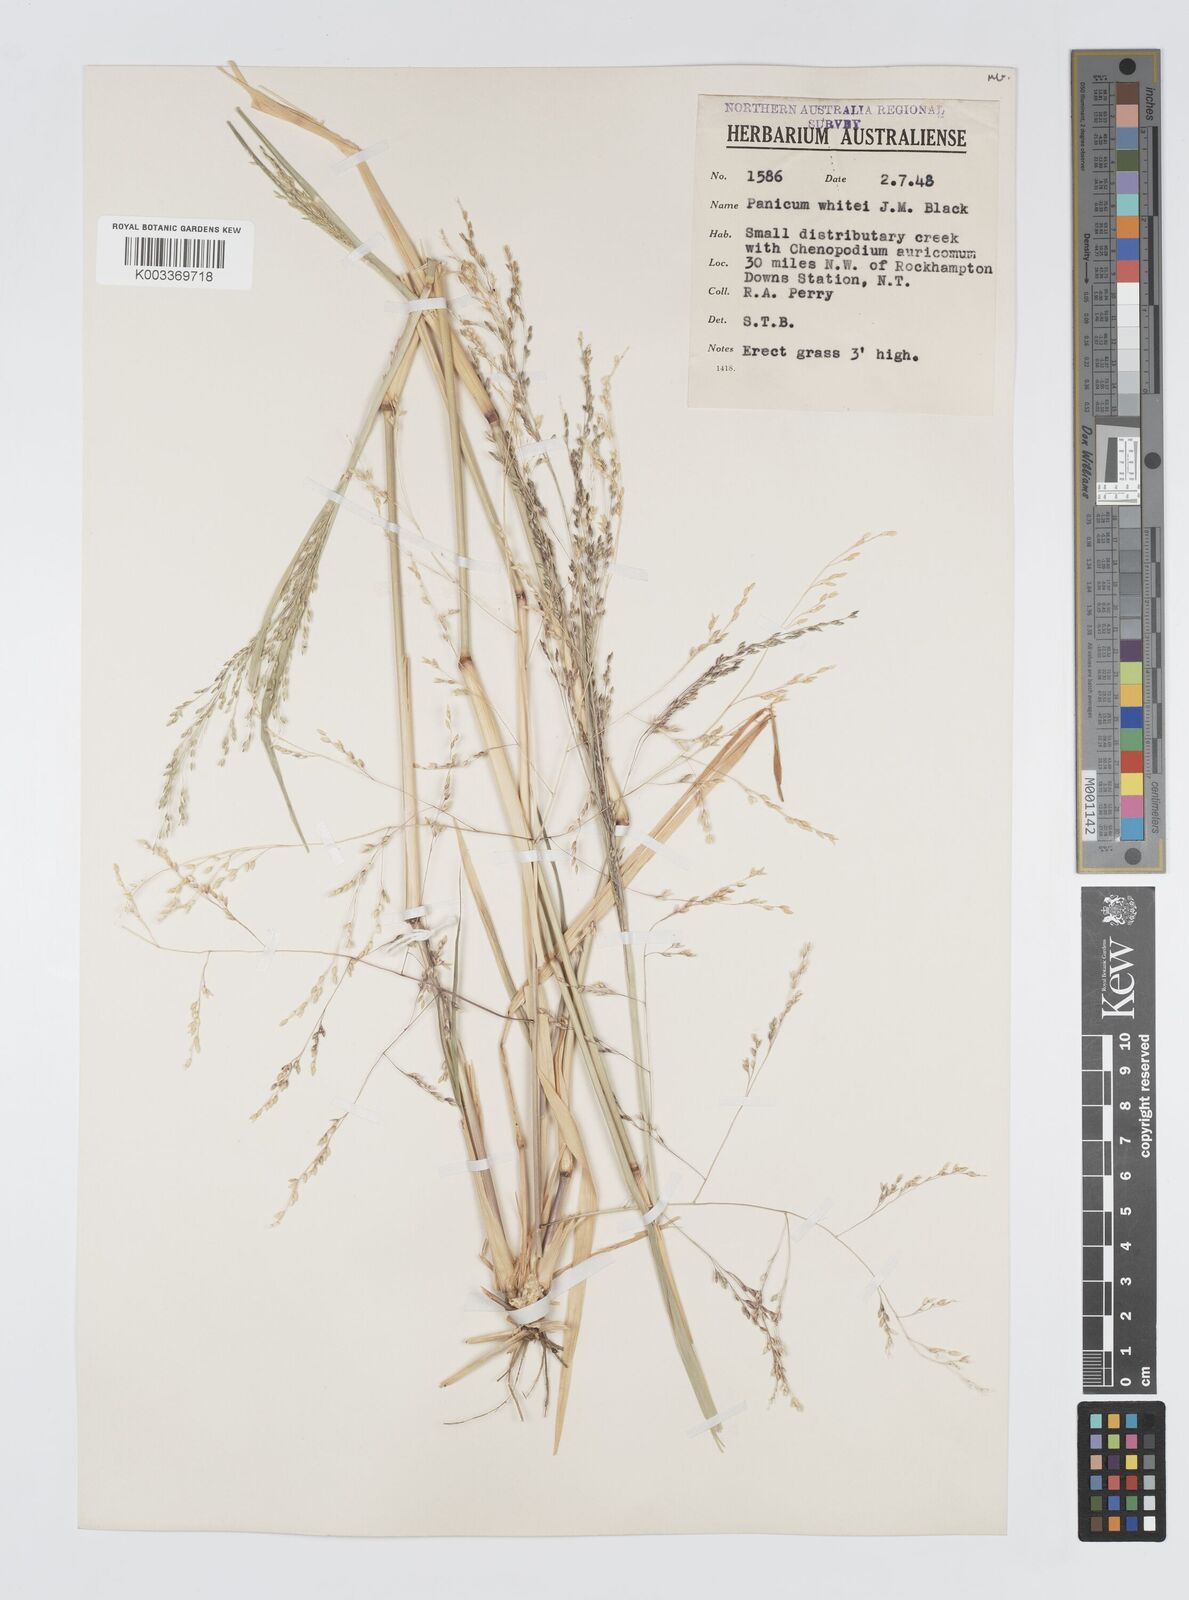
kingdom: Plantae
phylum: Tracheophyta
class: Liliopsida
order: Poales
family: Poaceae
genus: Panicum
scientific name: Panicum laevinode
